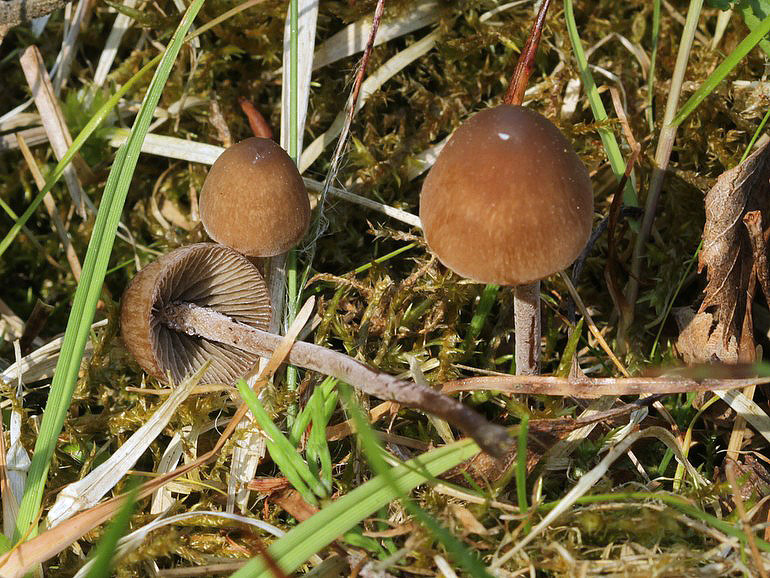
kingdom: Fungi
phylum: Basidiomycota
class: Agaricomycetes
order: Agaricales
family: Bolbitiaceae
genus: Panaeolus
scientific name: Panaeolus acuminatus
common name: høj glanshat
